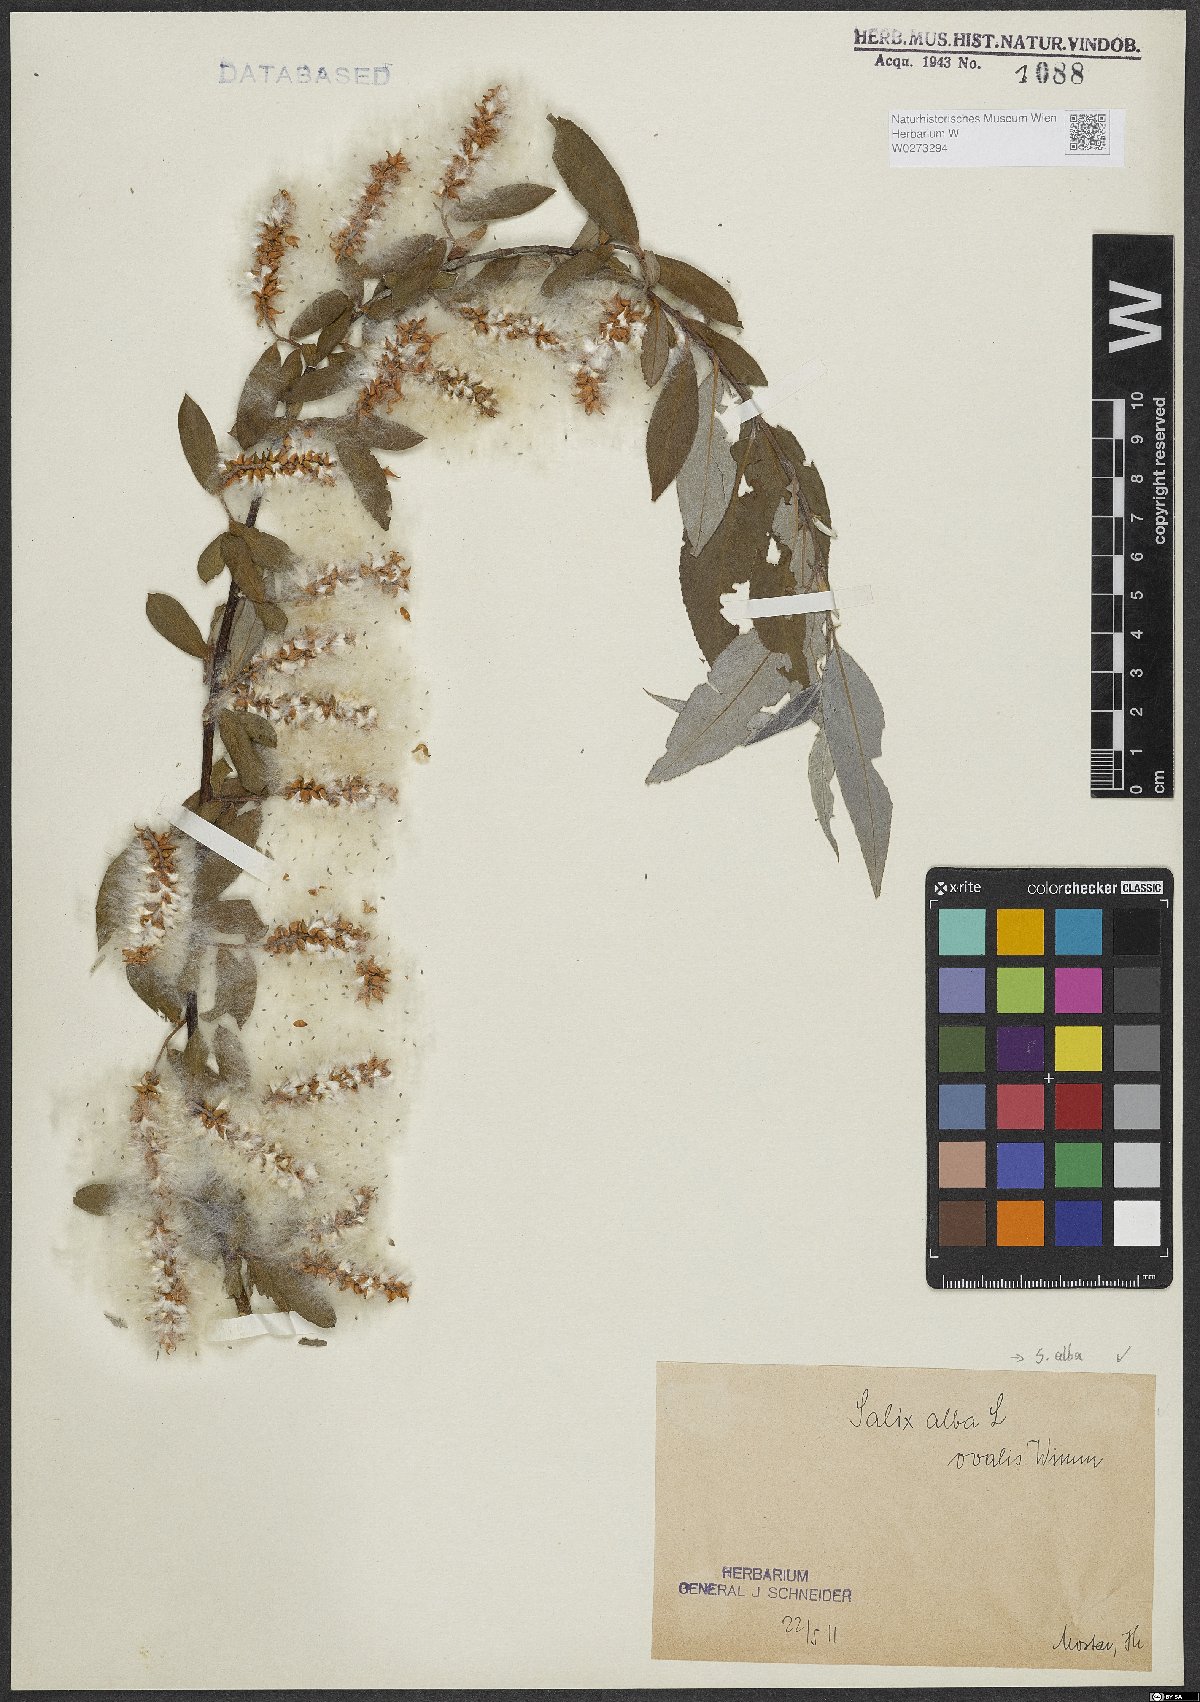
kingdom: Plantae
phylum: Tracheophyta
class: Magnoliopsida
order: Malpighiales
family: Salicaceae
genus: Salix
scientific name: Salix alba
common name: White willow
